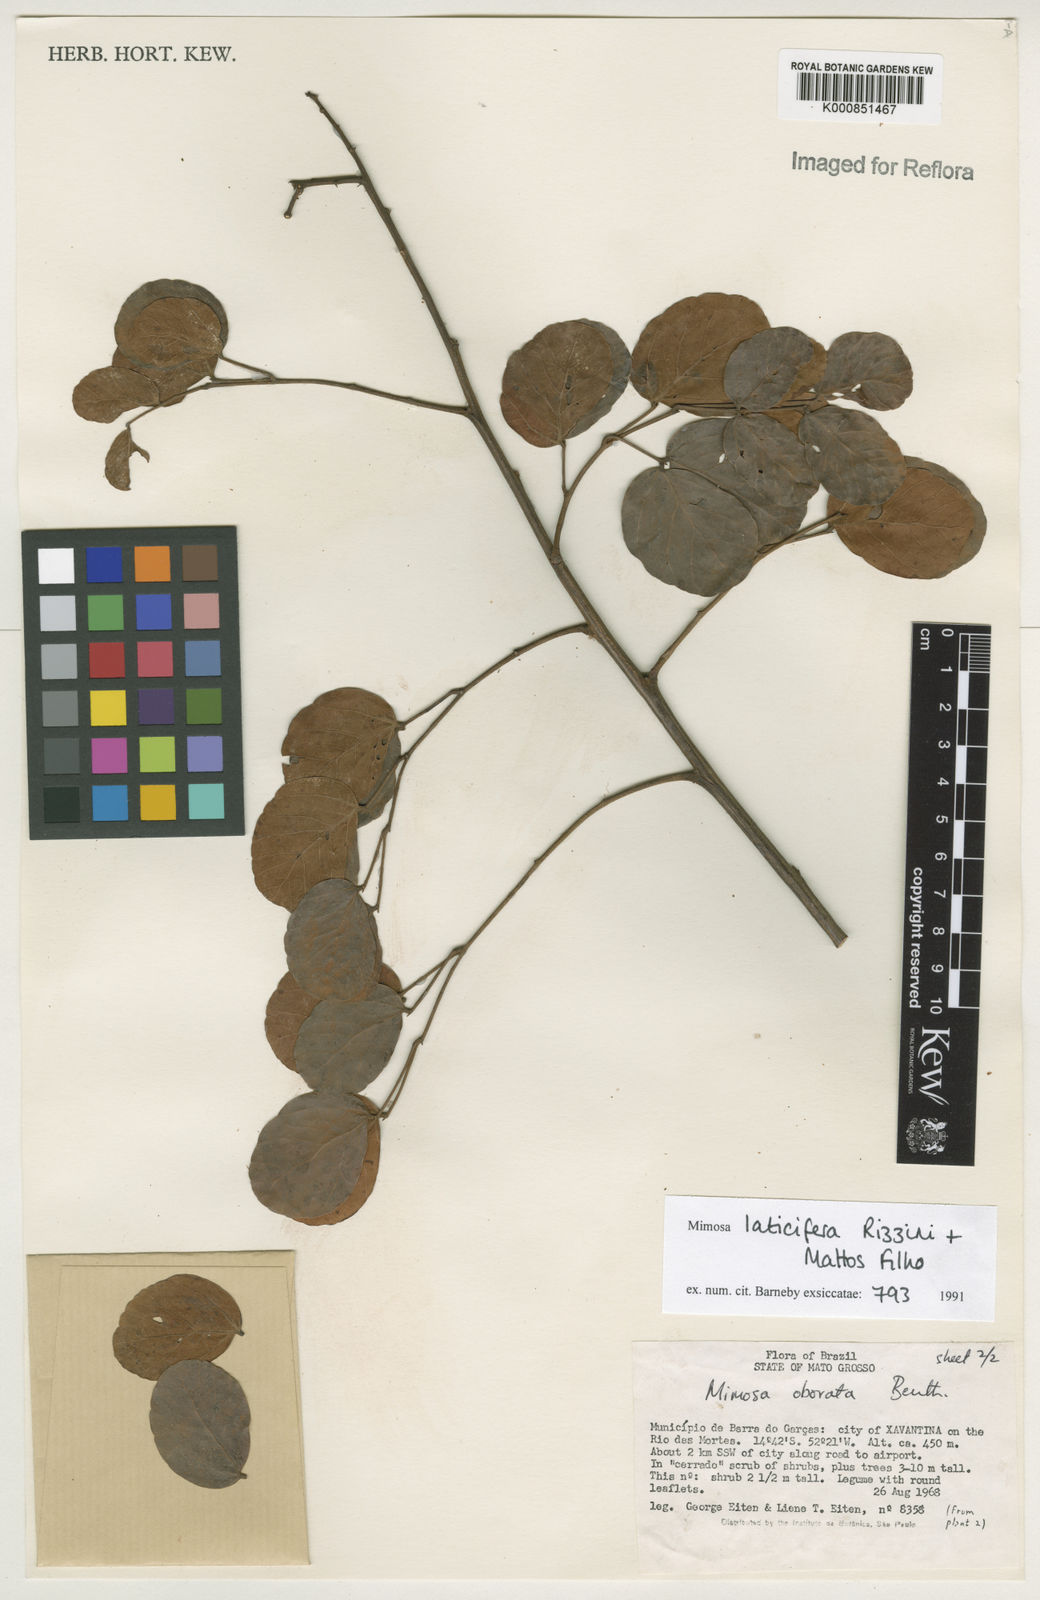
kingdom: Plantae
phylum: Tracheophyta
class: Magnoliopsida
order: Fabales
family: Fabaceae
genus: Mimosa
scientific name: Mimosa laticifera
